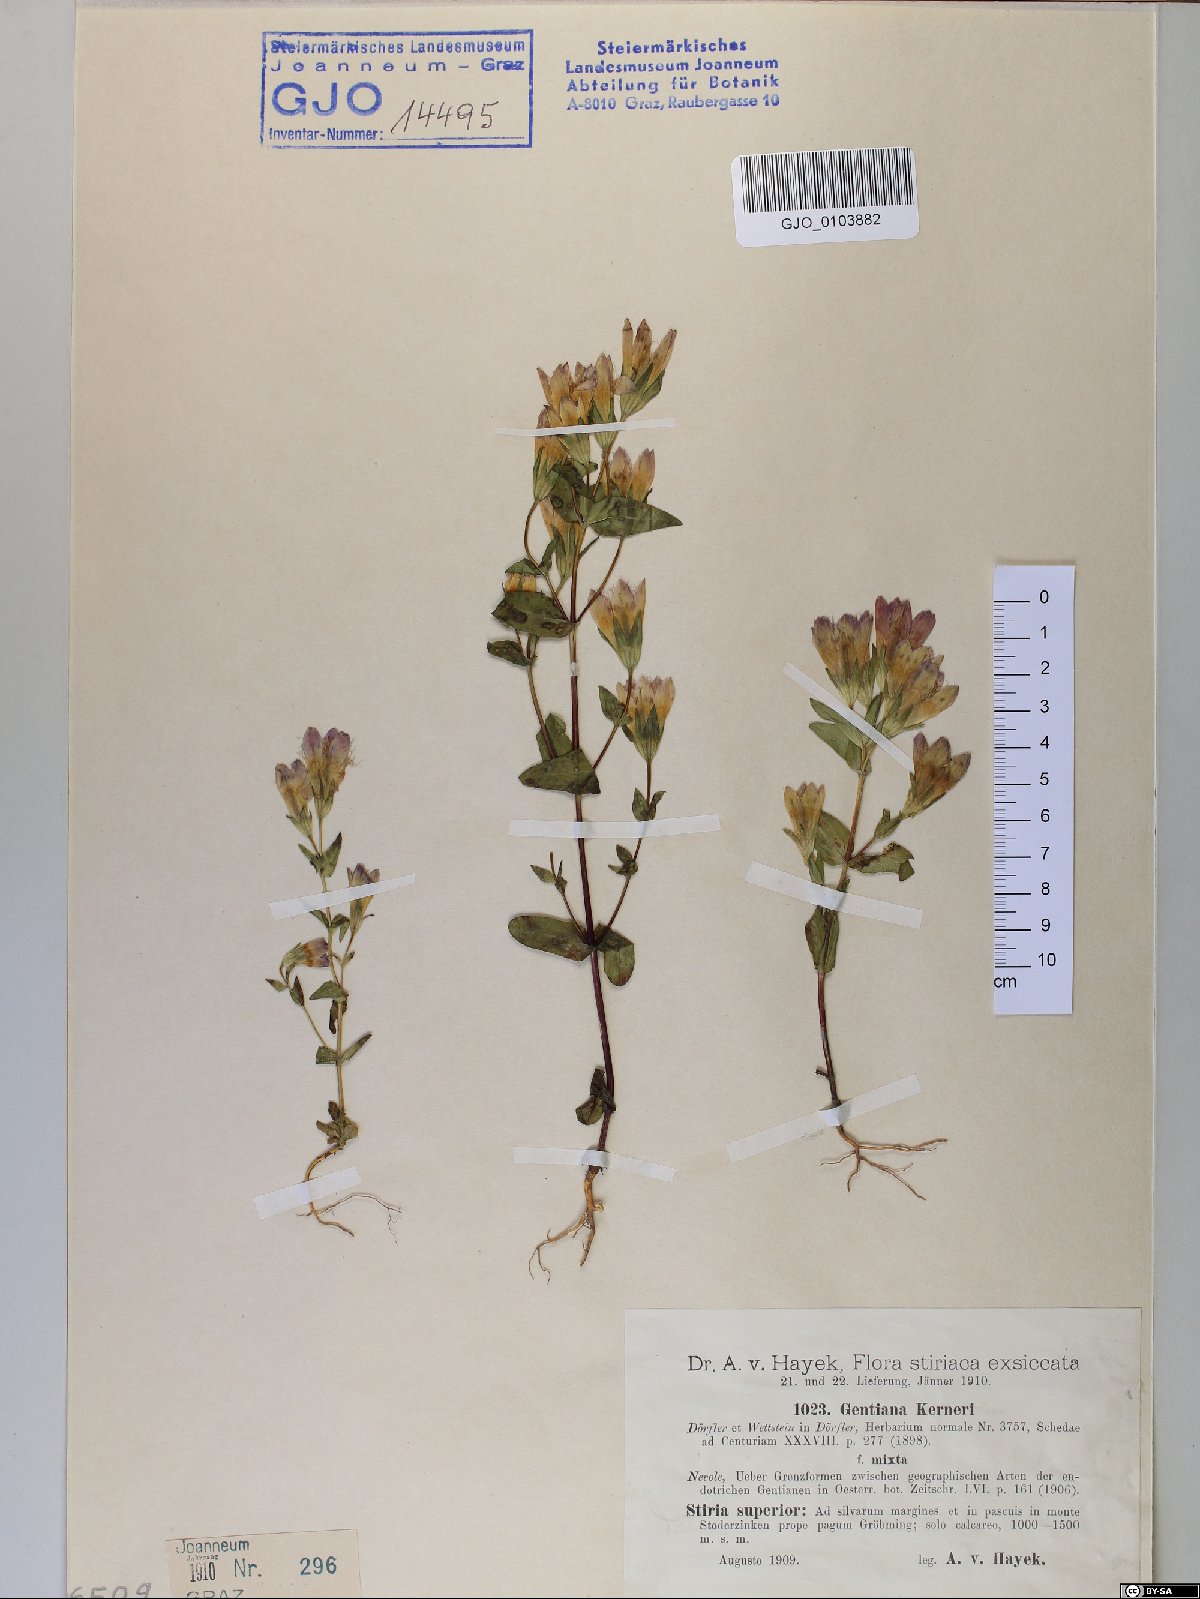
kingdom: Plantae
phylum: Tracheophyta
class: Magnoliopsida
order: Gentianales
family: Gentianaceae
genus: Gentianella
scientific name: Gentianella rhaetica
